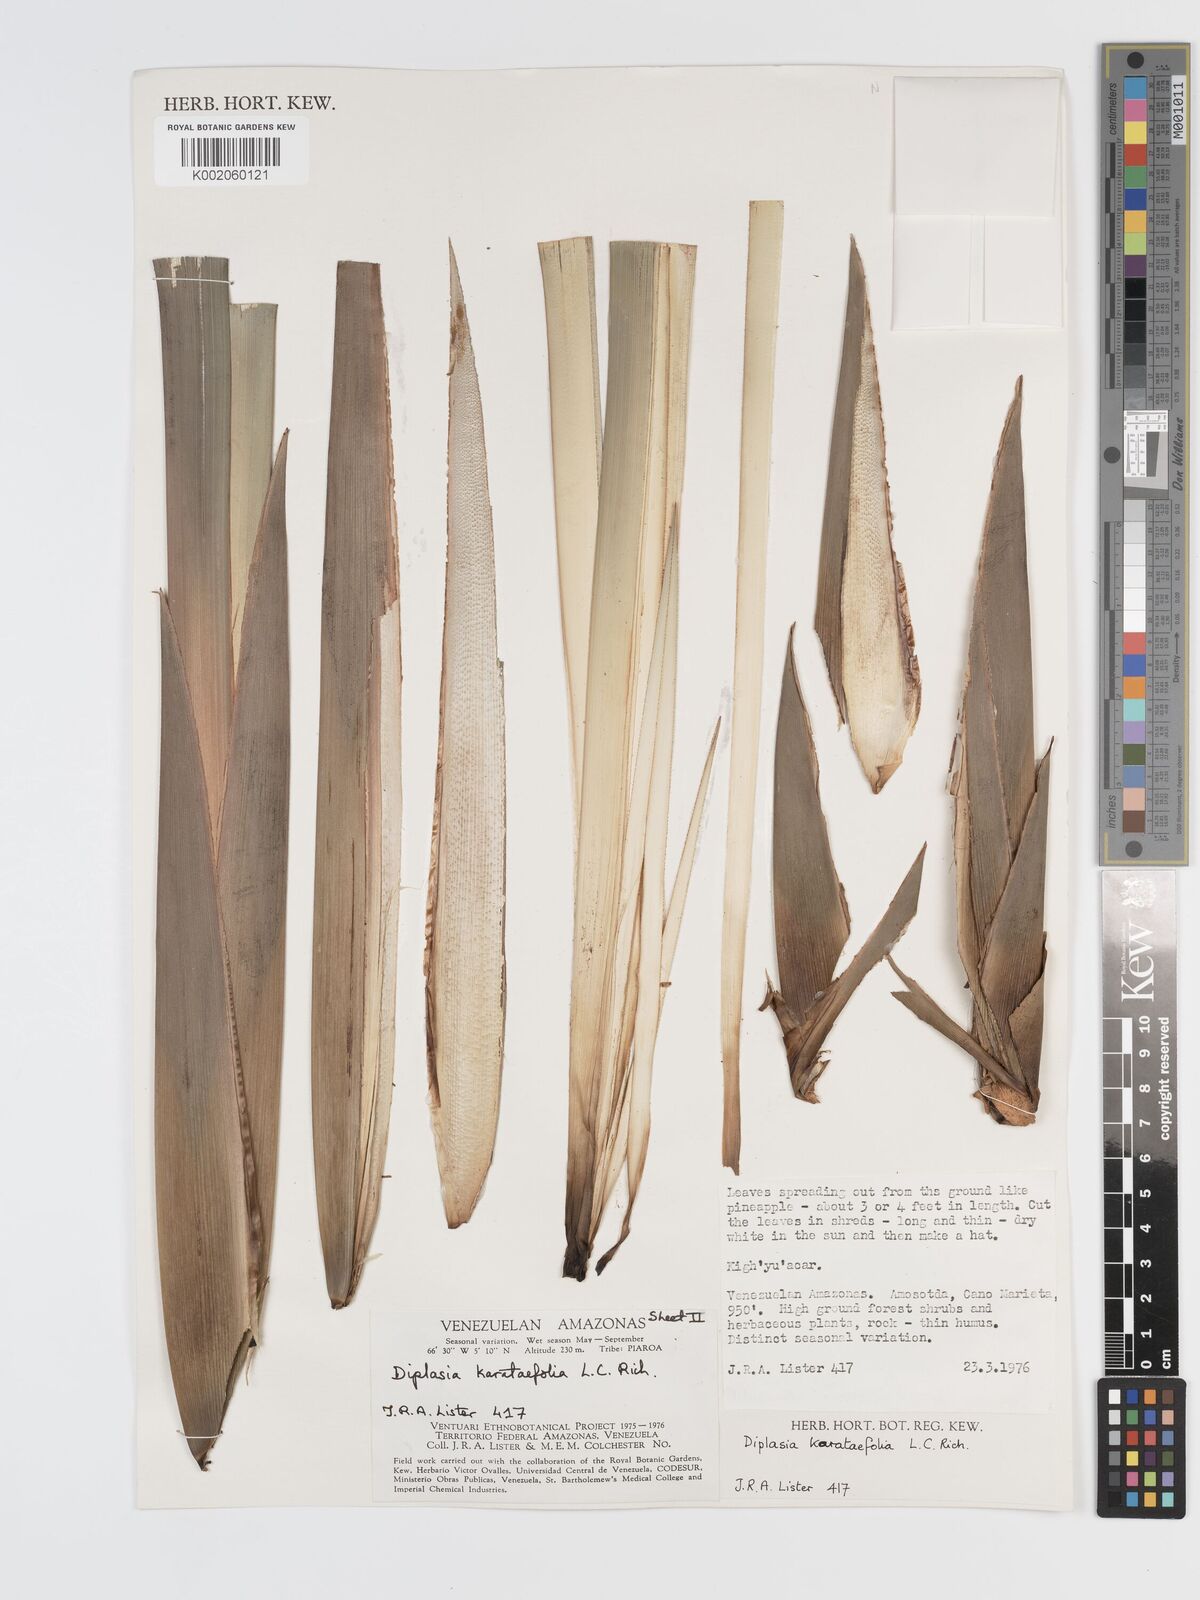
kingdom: Plantae
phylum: Tracheophyta
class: Liliopsida
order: Poales
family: Cyperaceae
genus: Diplasia
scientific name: Diplasia karatifolia
